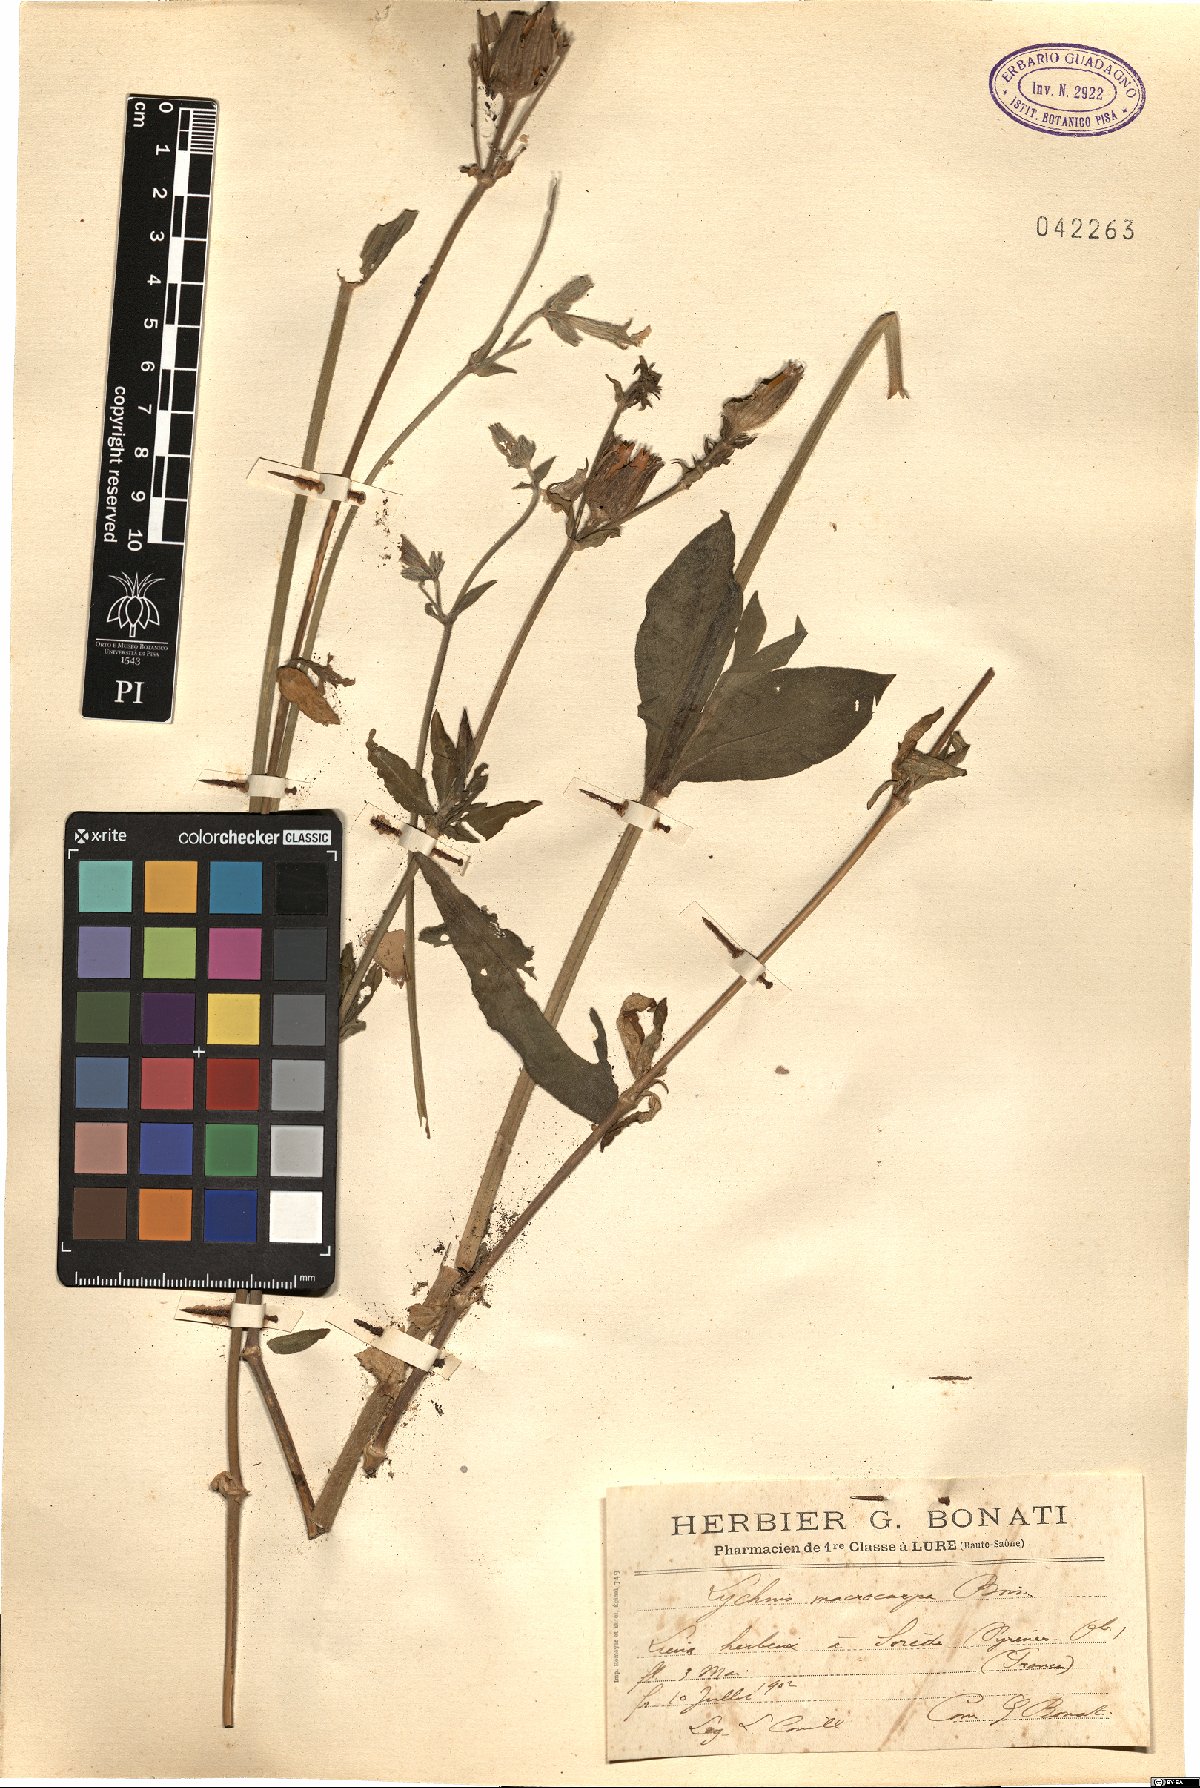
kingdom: Plantae
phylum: Tracheophyta
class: Magnoliopsida
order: Caryophyllales
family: Caryophyllaceae
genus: Silene
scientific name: Silene latifolia
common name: White campion
